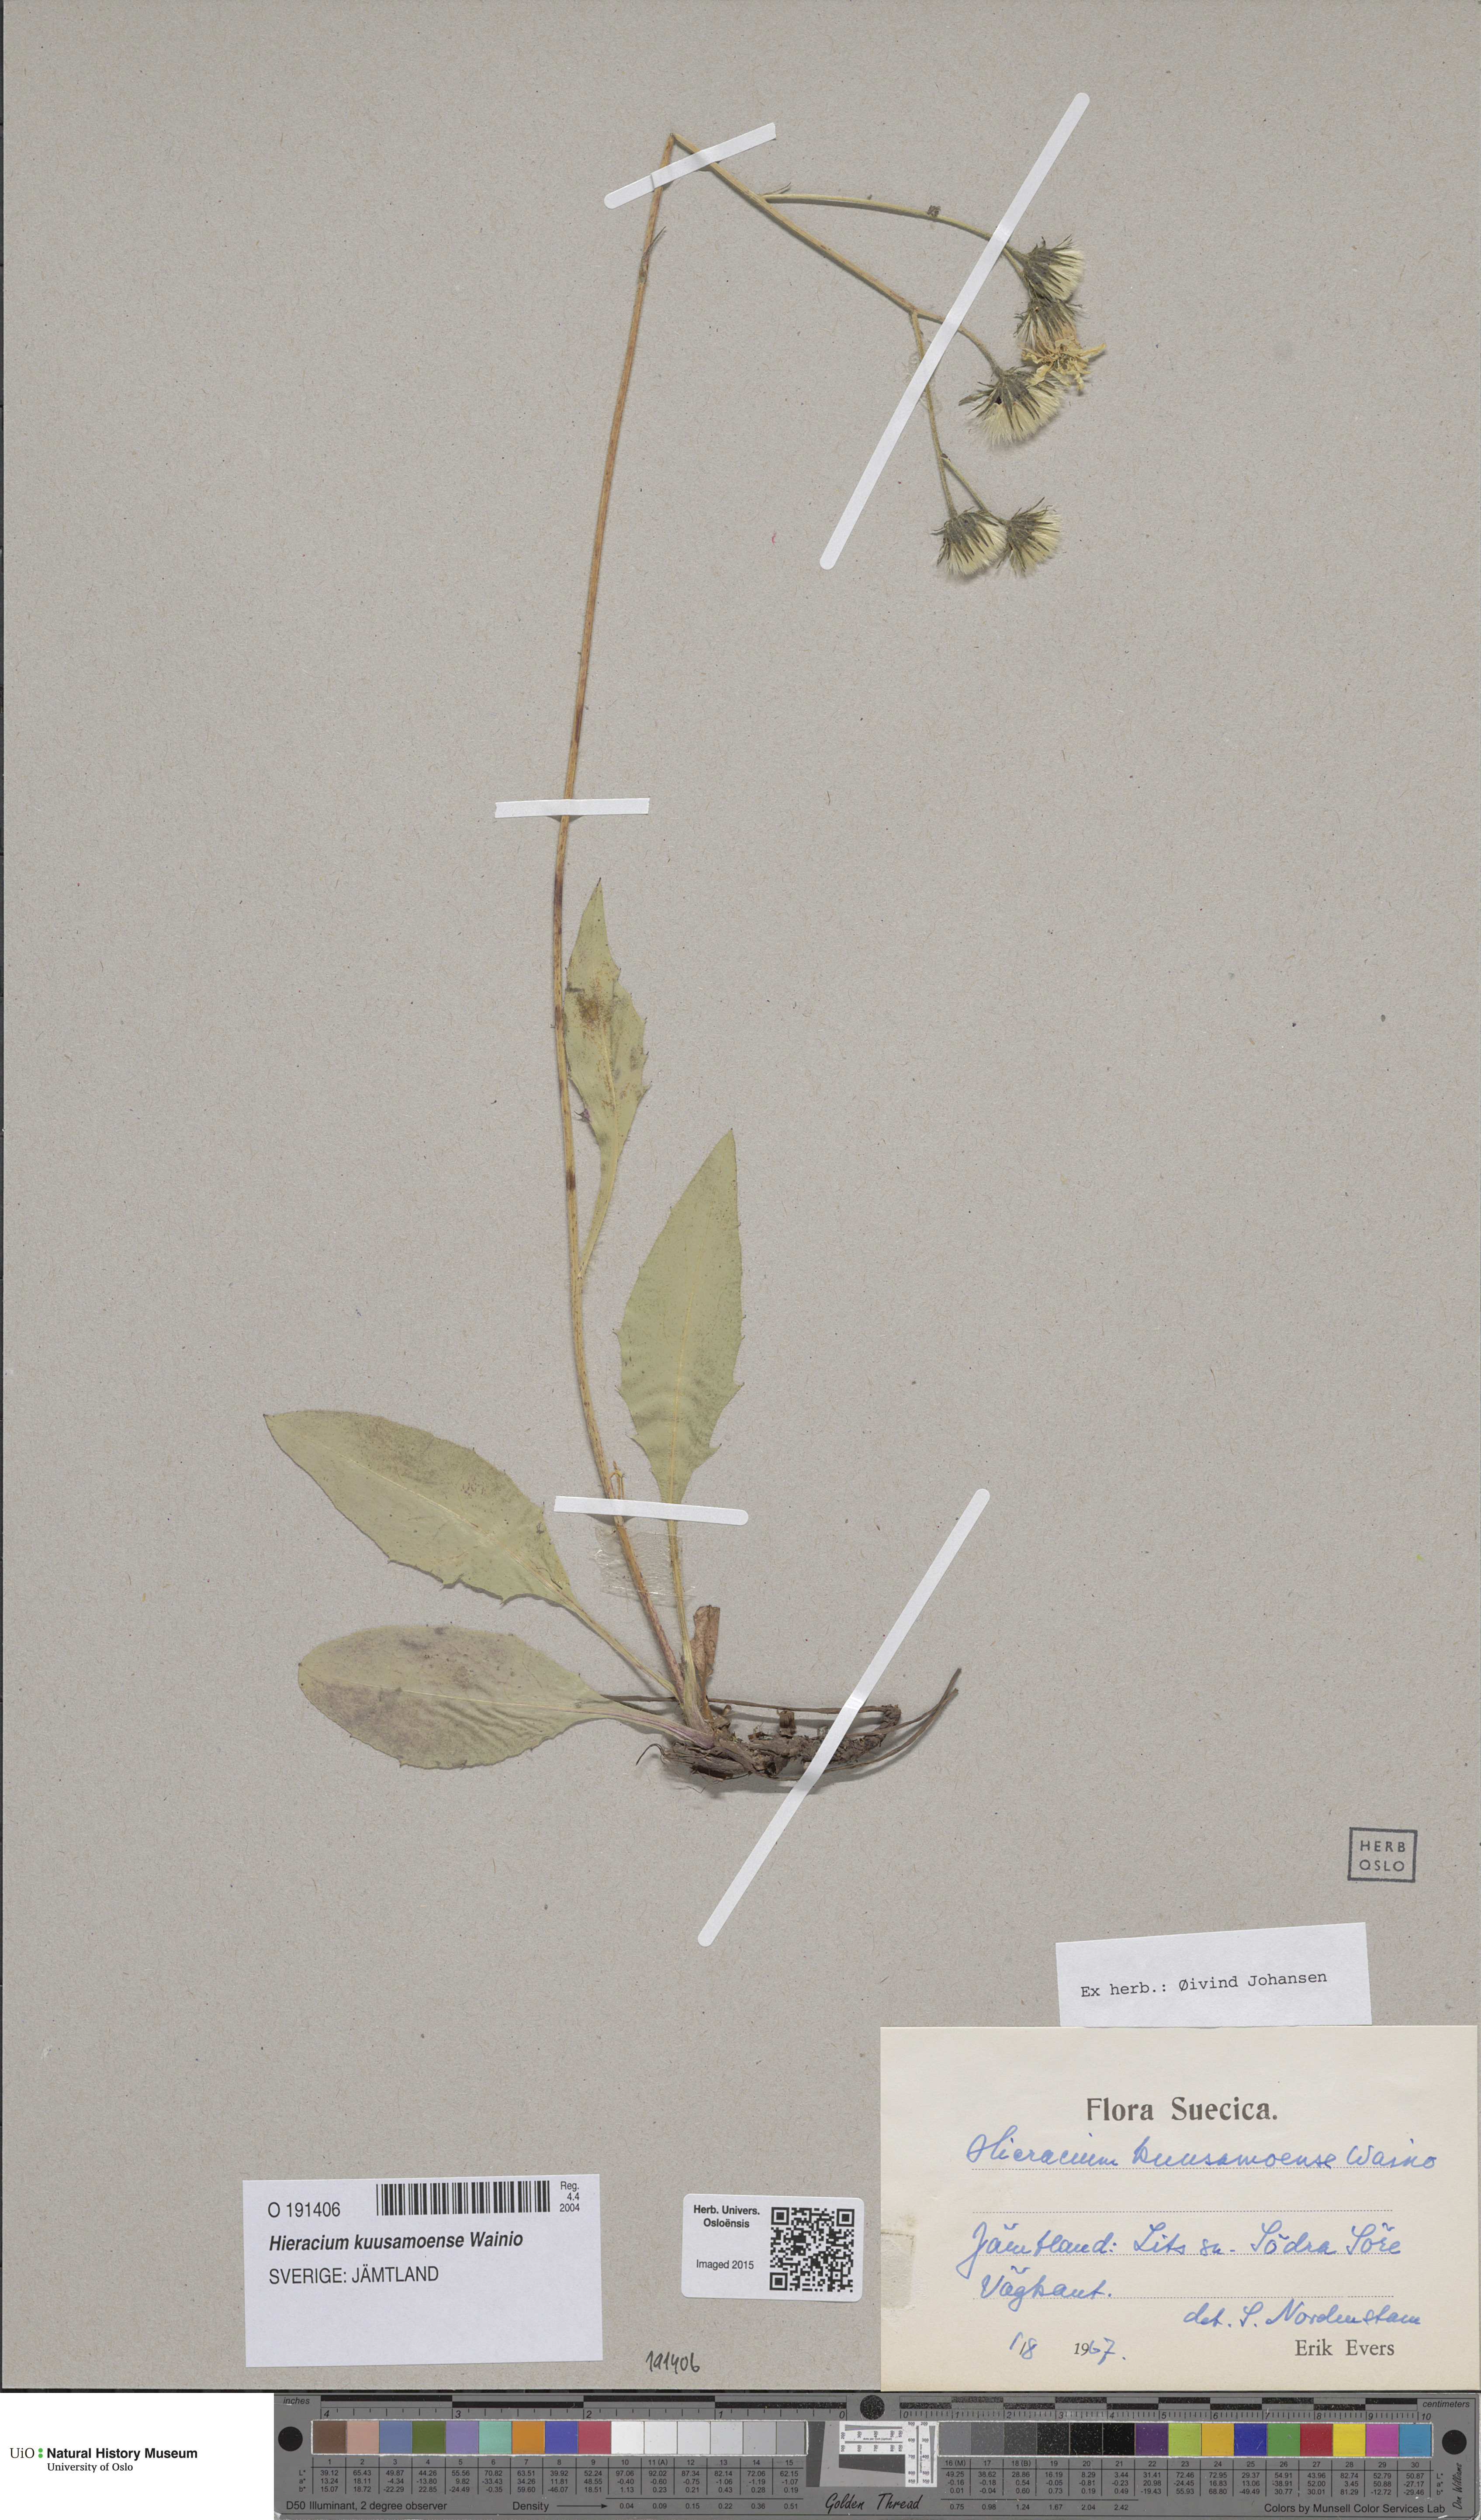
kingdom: Plantae
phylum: Tracheophyta
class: Magnoliopsida
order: Asterales
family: Asteraceae
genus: Hieracium
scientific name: Hieracium plicatum
